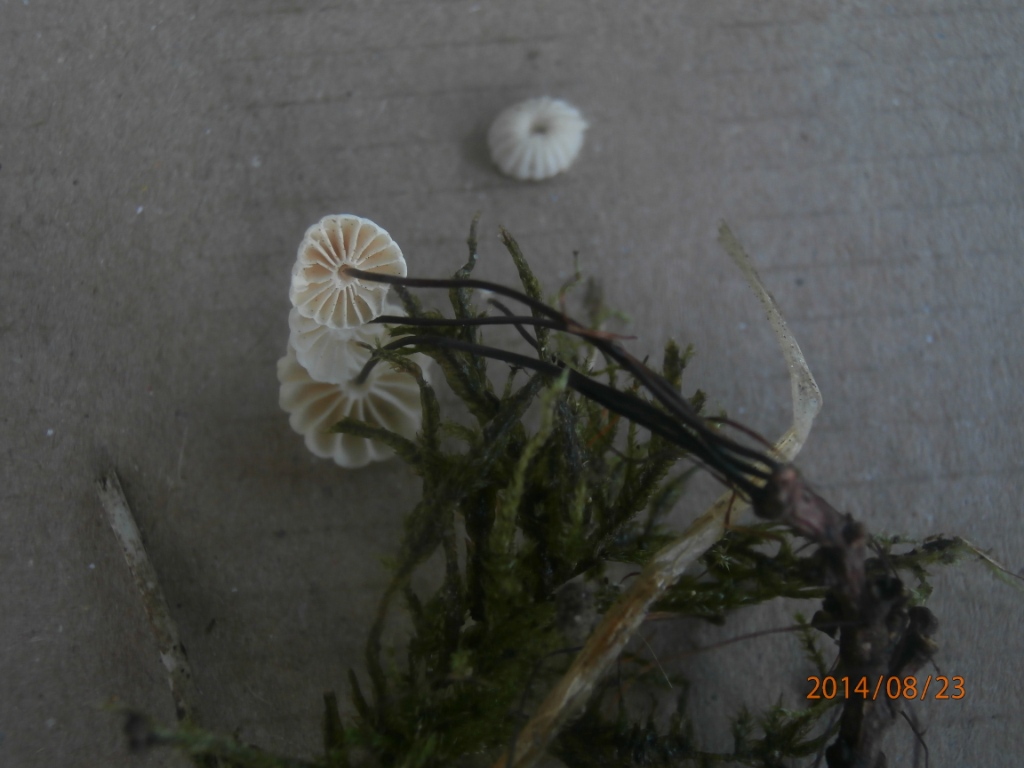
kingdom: Fungi
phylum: Basidiomycota
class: Agaricomycetes
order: Agaricales
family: Marasmiaceae
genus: Marasmius
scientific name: Marasmius rotula
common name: hjul-bruskhat
